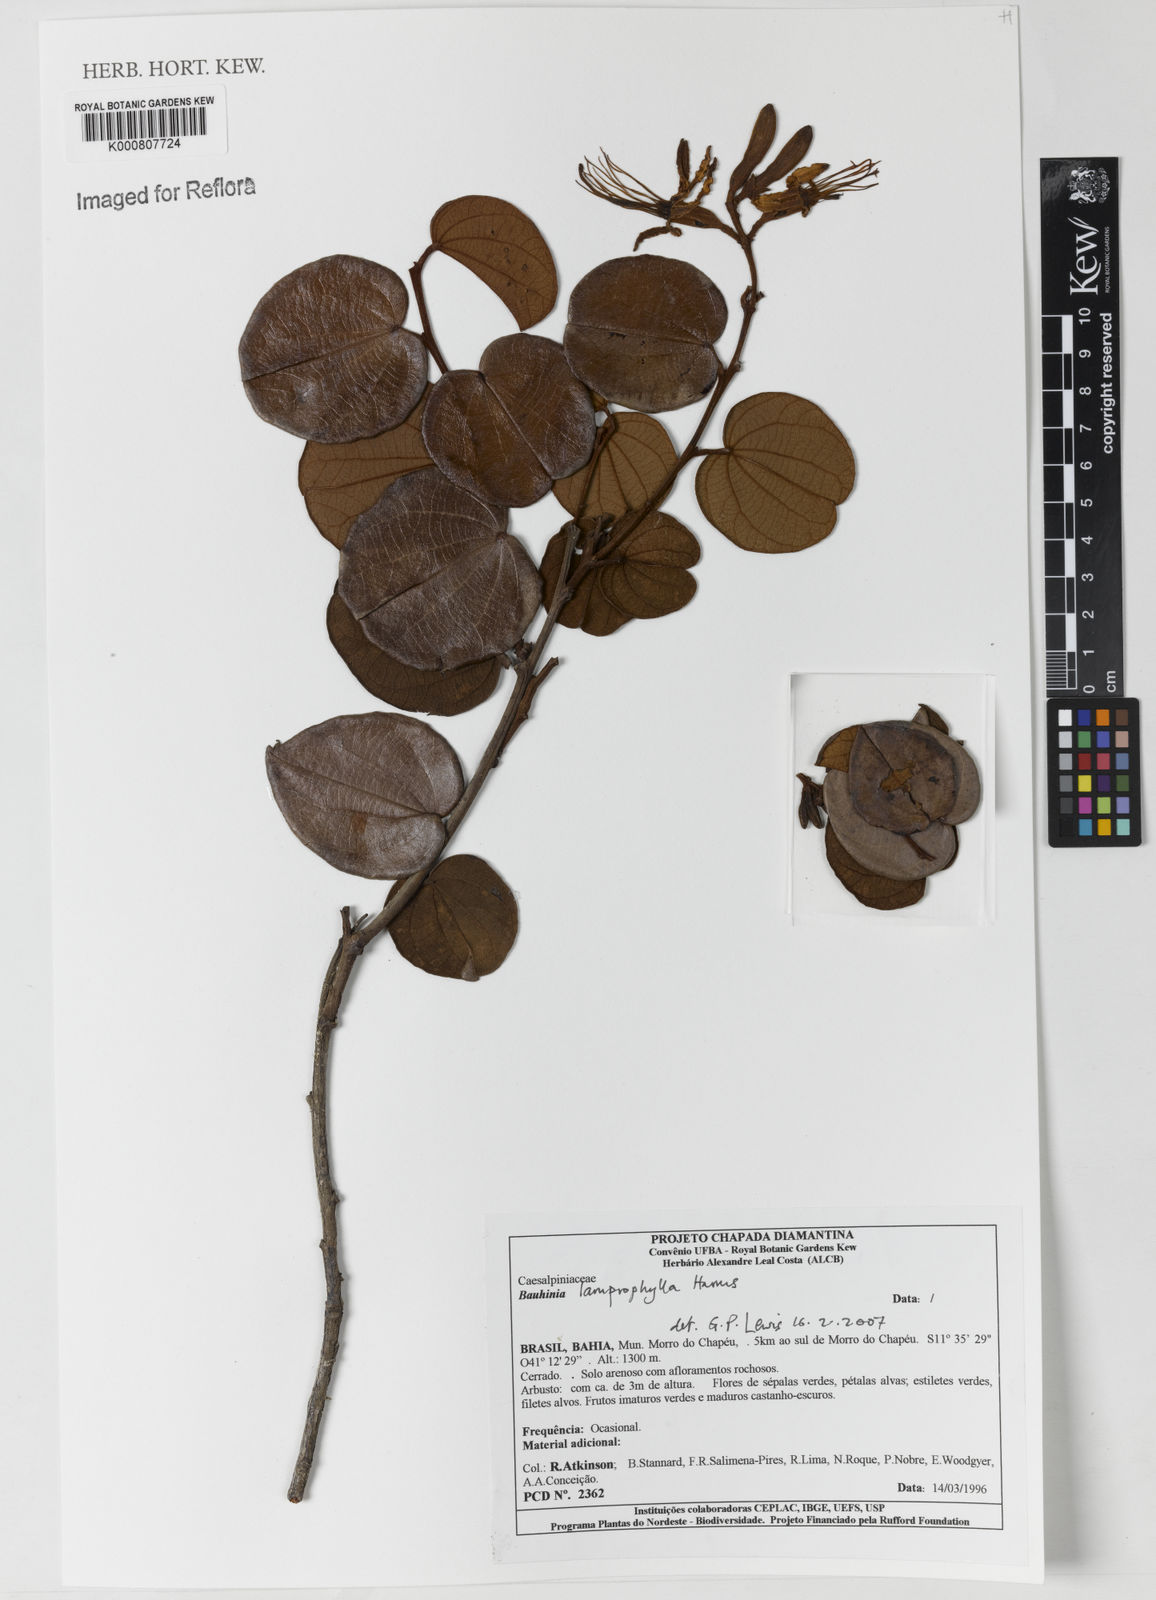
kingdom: Plantae
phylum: Tracheophyta
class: Magnoliopsida
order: Fabales
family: Fabaceae
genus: Bauhinia
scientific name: Bauhinia acuruana
